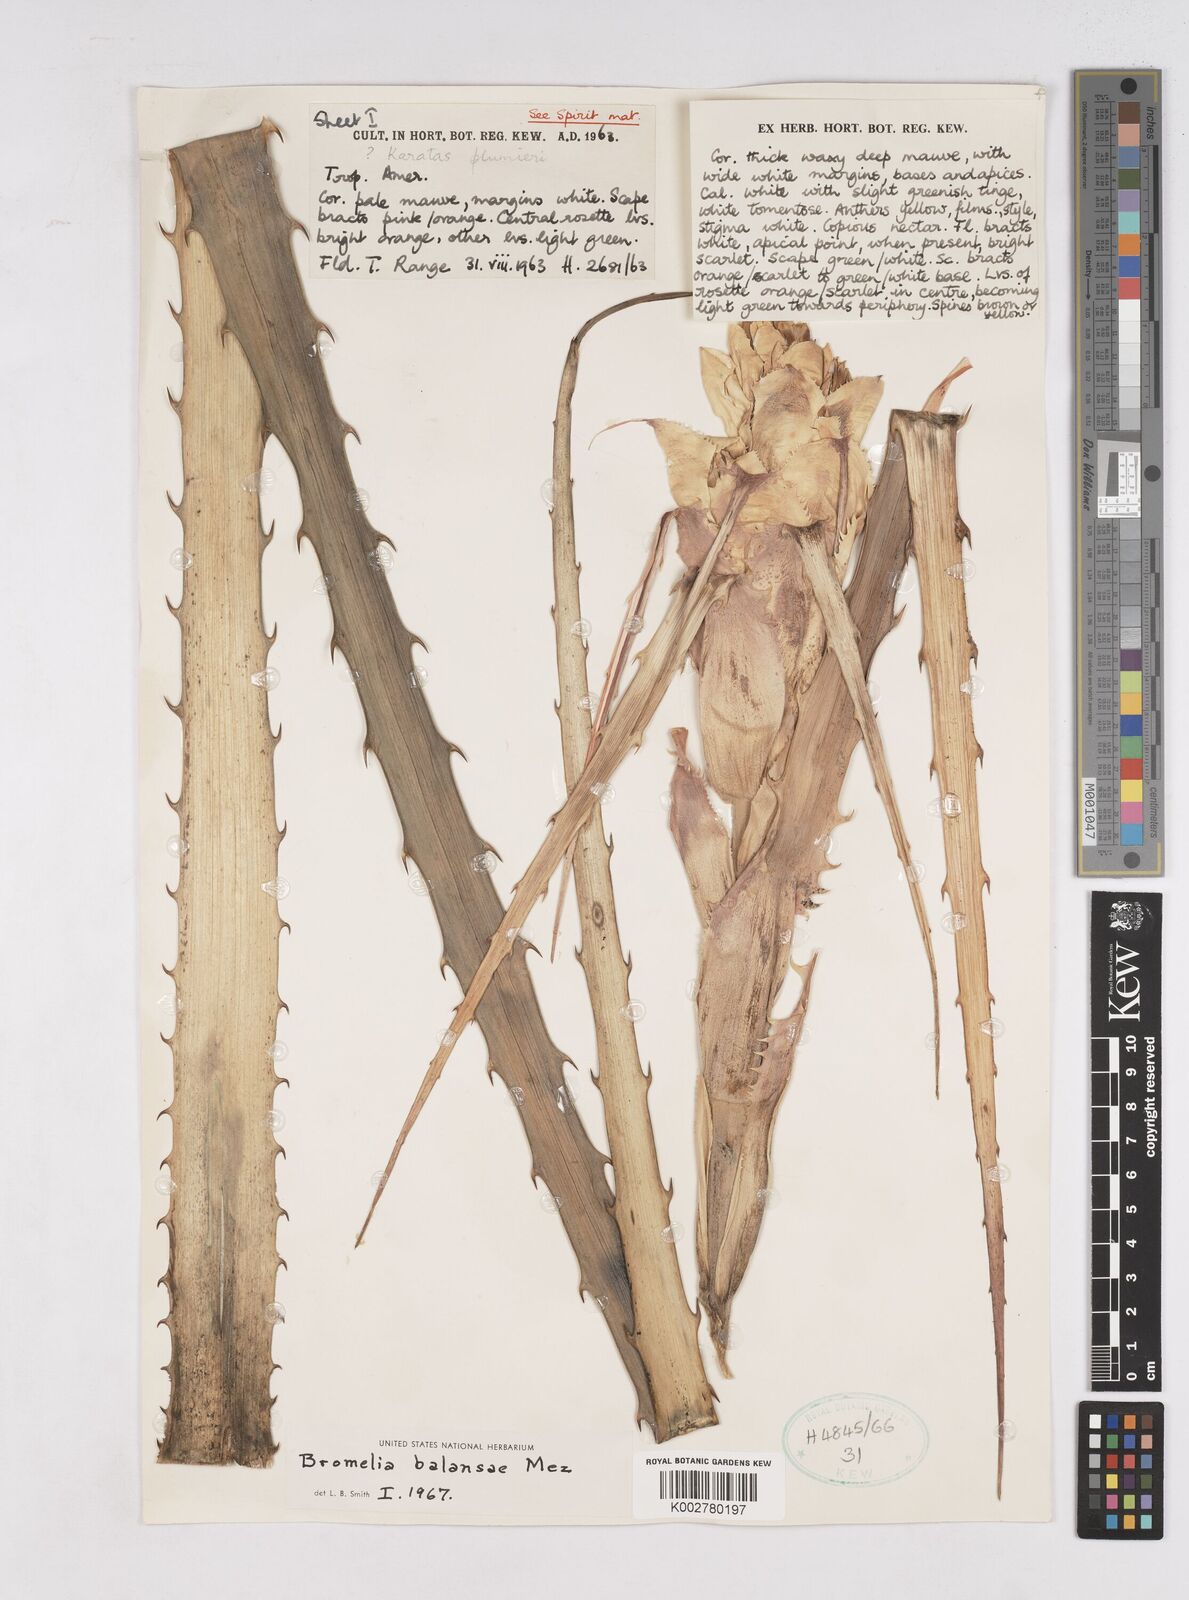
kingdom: Plantae
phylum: Tracheophyta
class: Liliopsida
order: Poales
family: Bromeliaceae
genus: Bromelia
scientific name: Bromelia balansae
